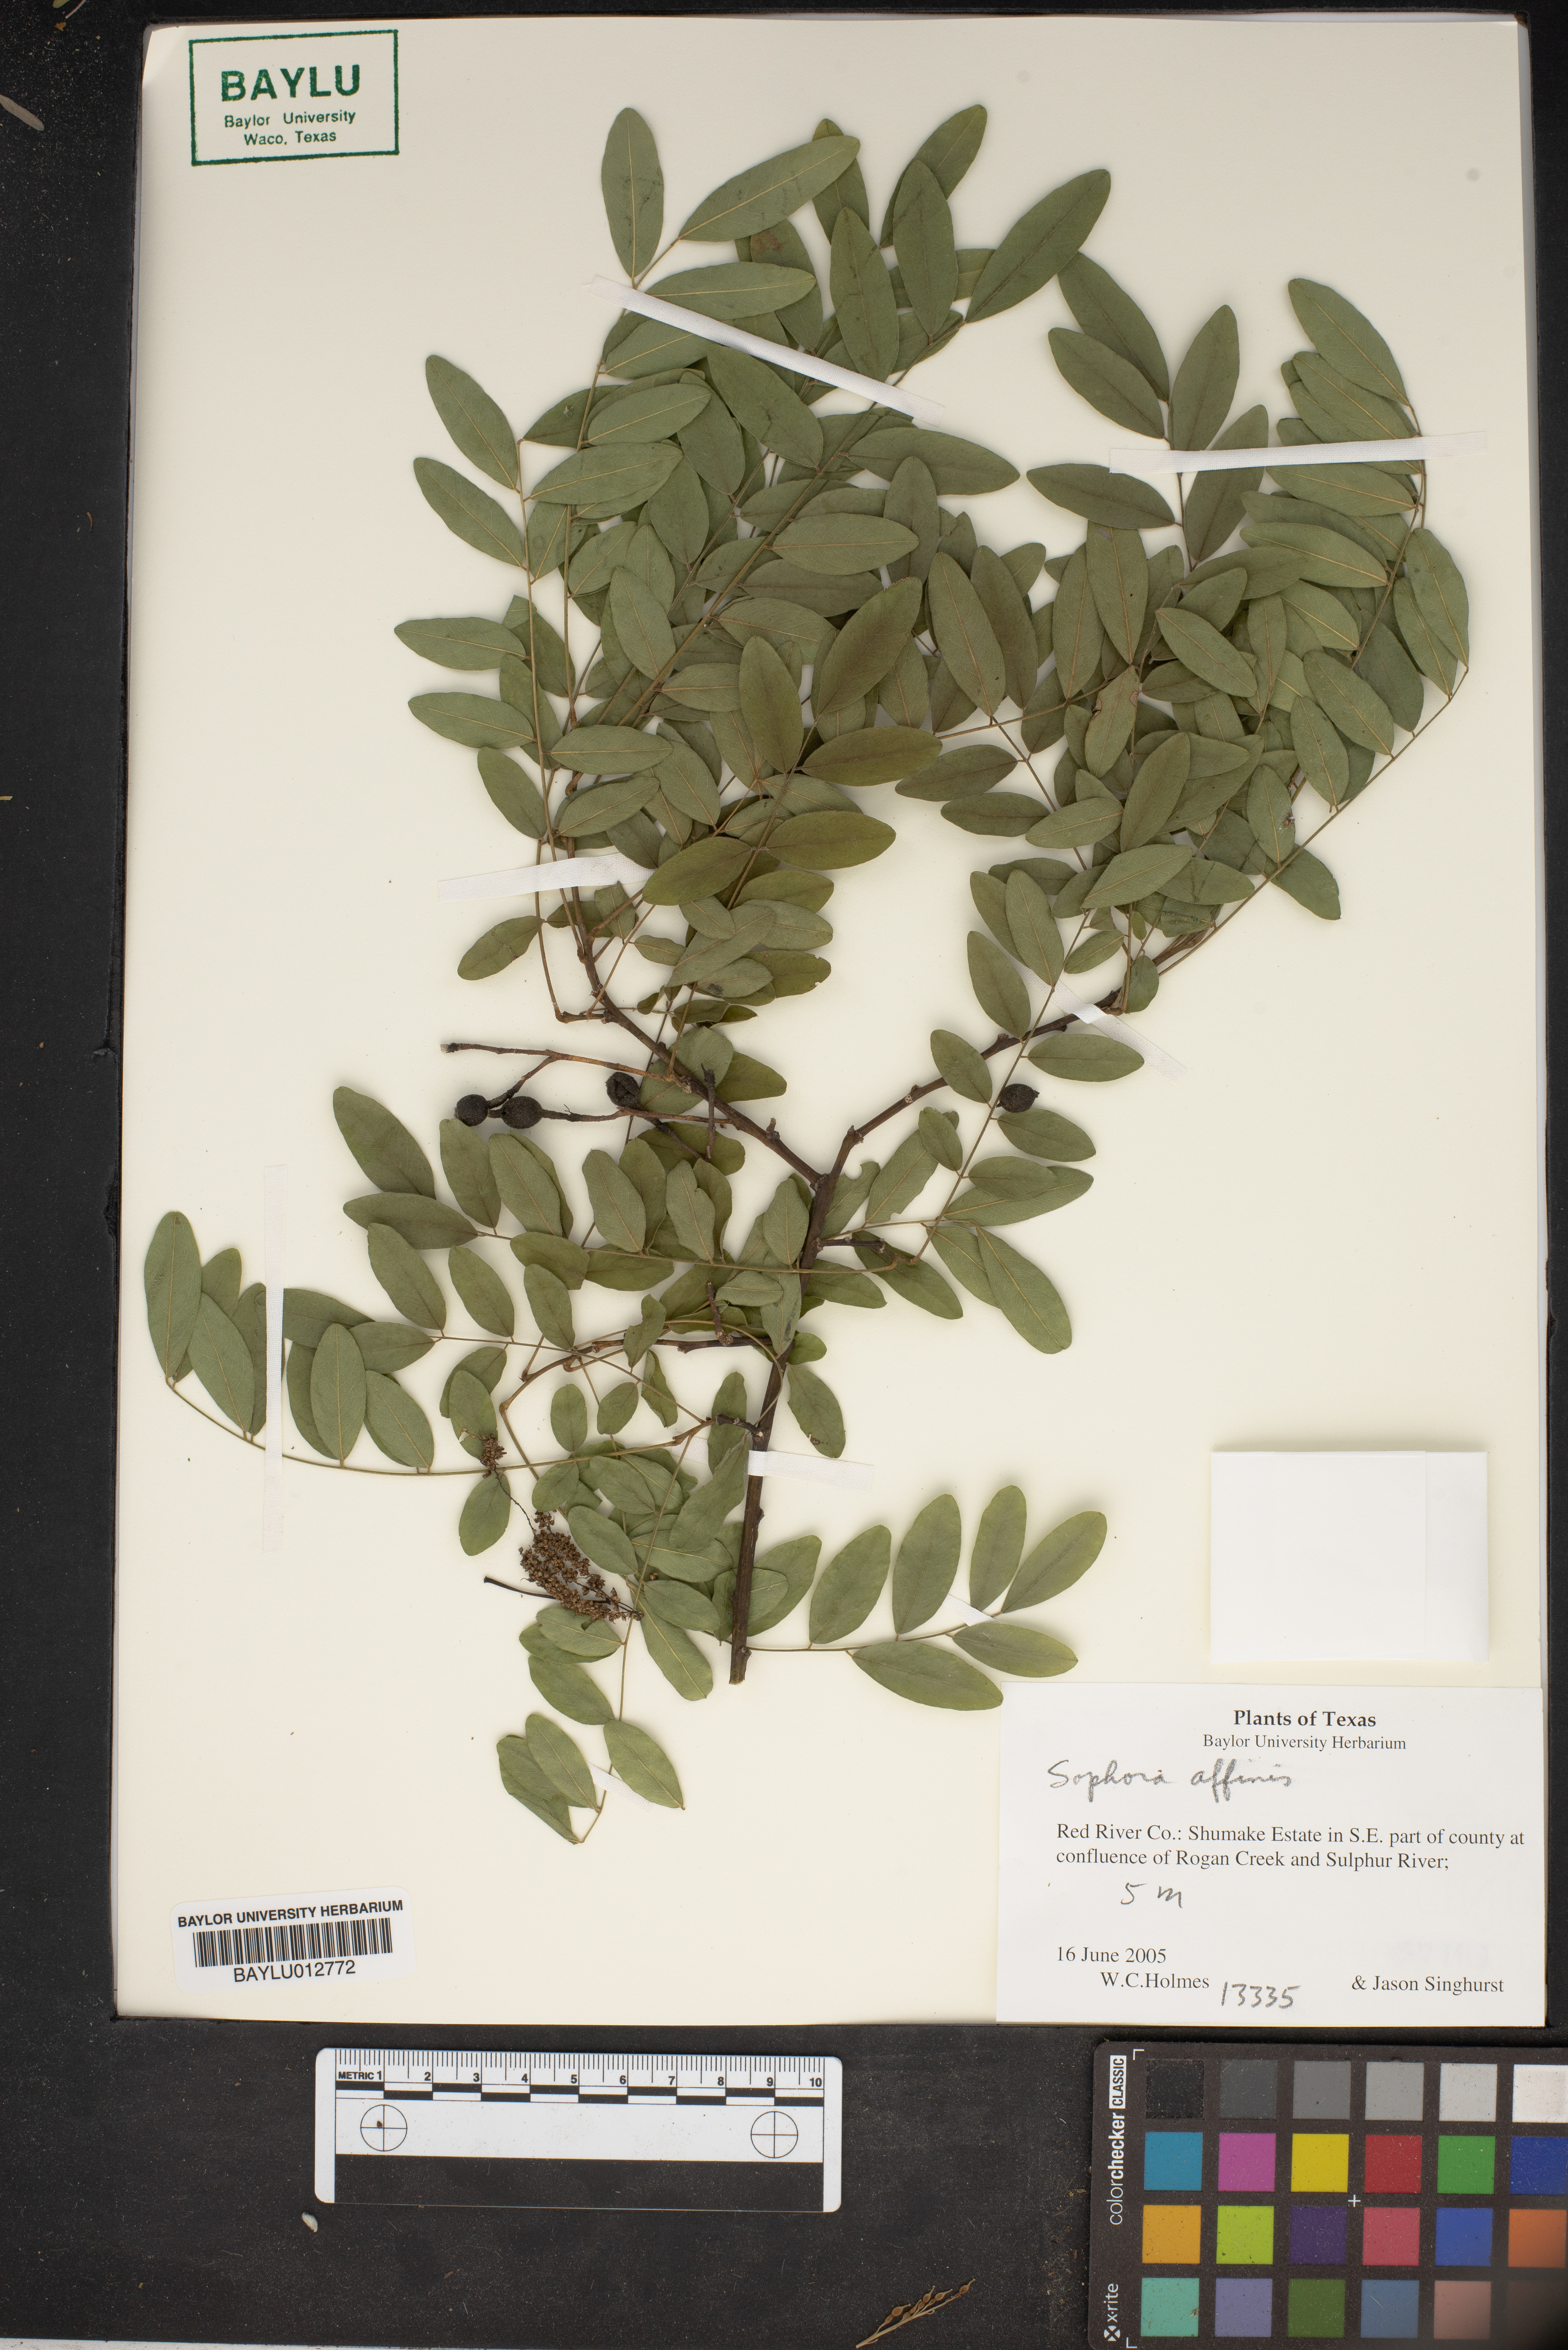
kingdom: Plantae
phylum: Tracheophyta
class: Magnoliopsida
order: Fabales
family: Fabaceae
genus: Styphnolobium
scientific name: Styphnolobium affine
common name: Texas sophora
